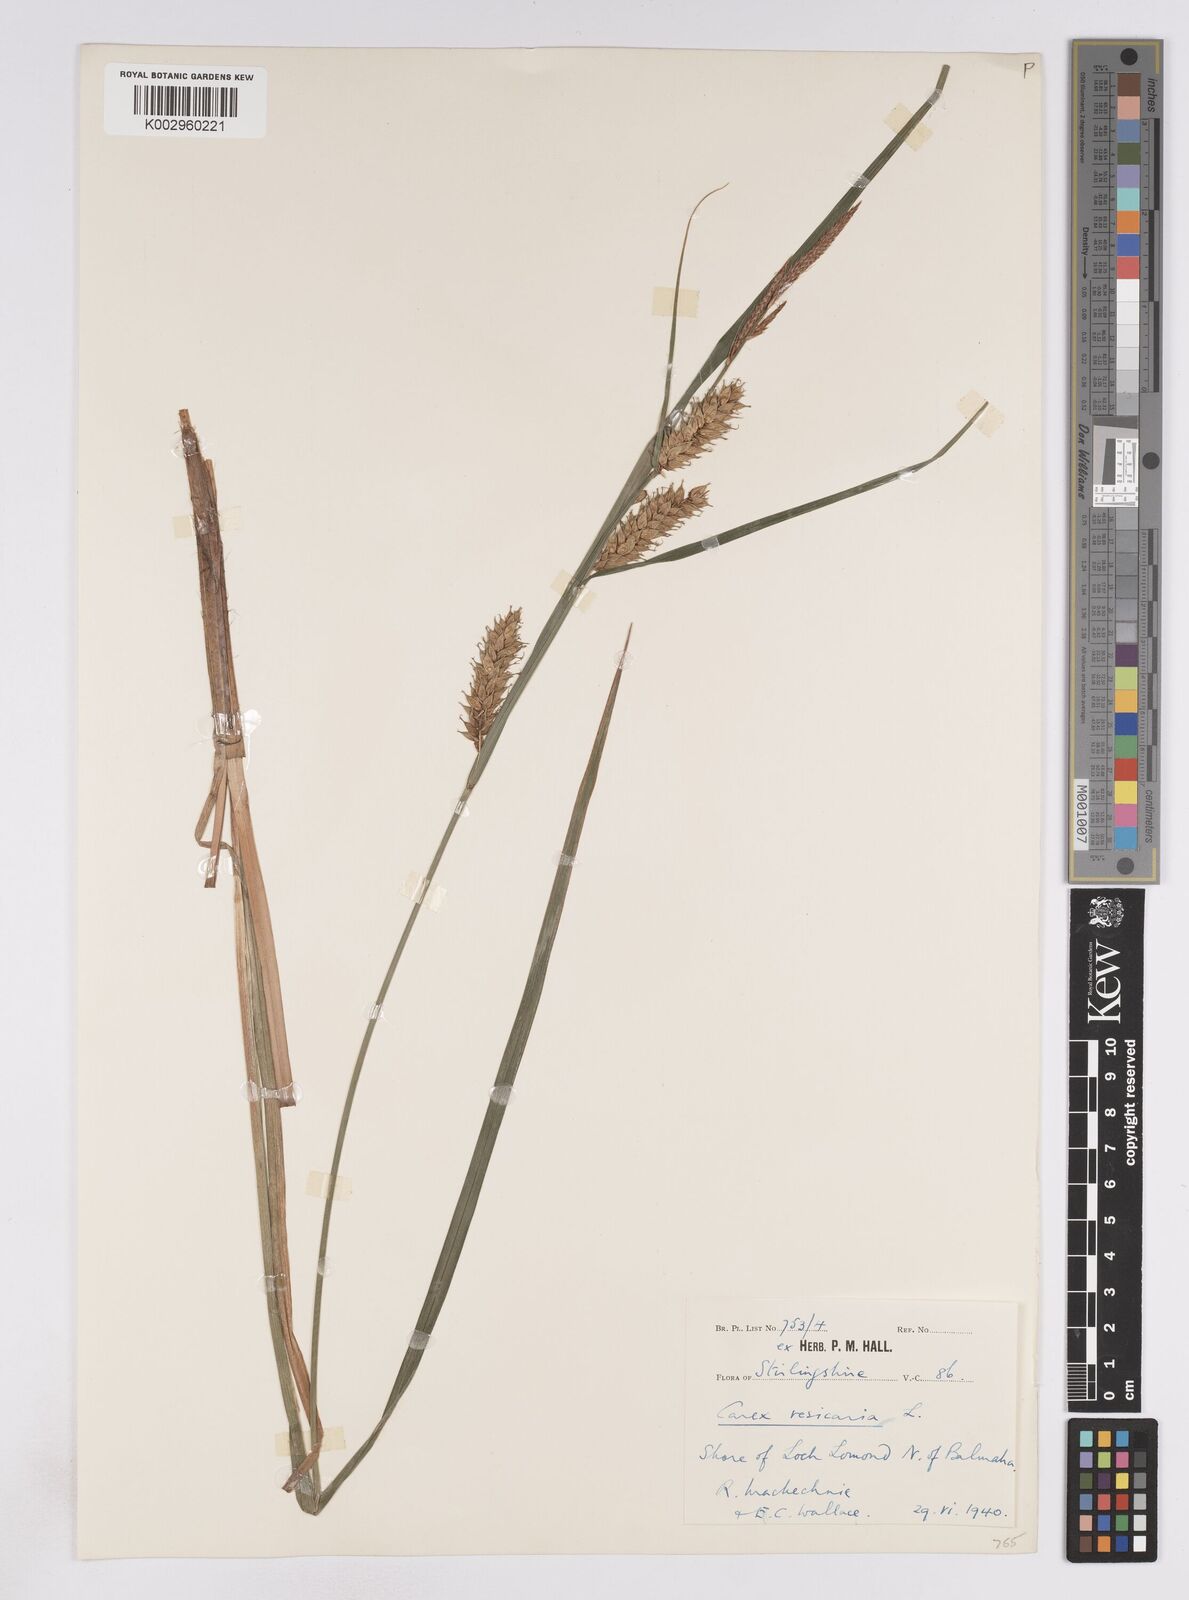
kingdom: Plantae
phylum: Tracheophyta
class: Liliopsida
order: Poales
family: Cyperaceae
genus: Carex
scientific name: Carex vesicaria
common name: Bladder-sedge
